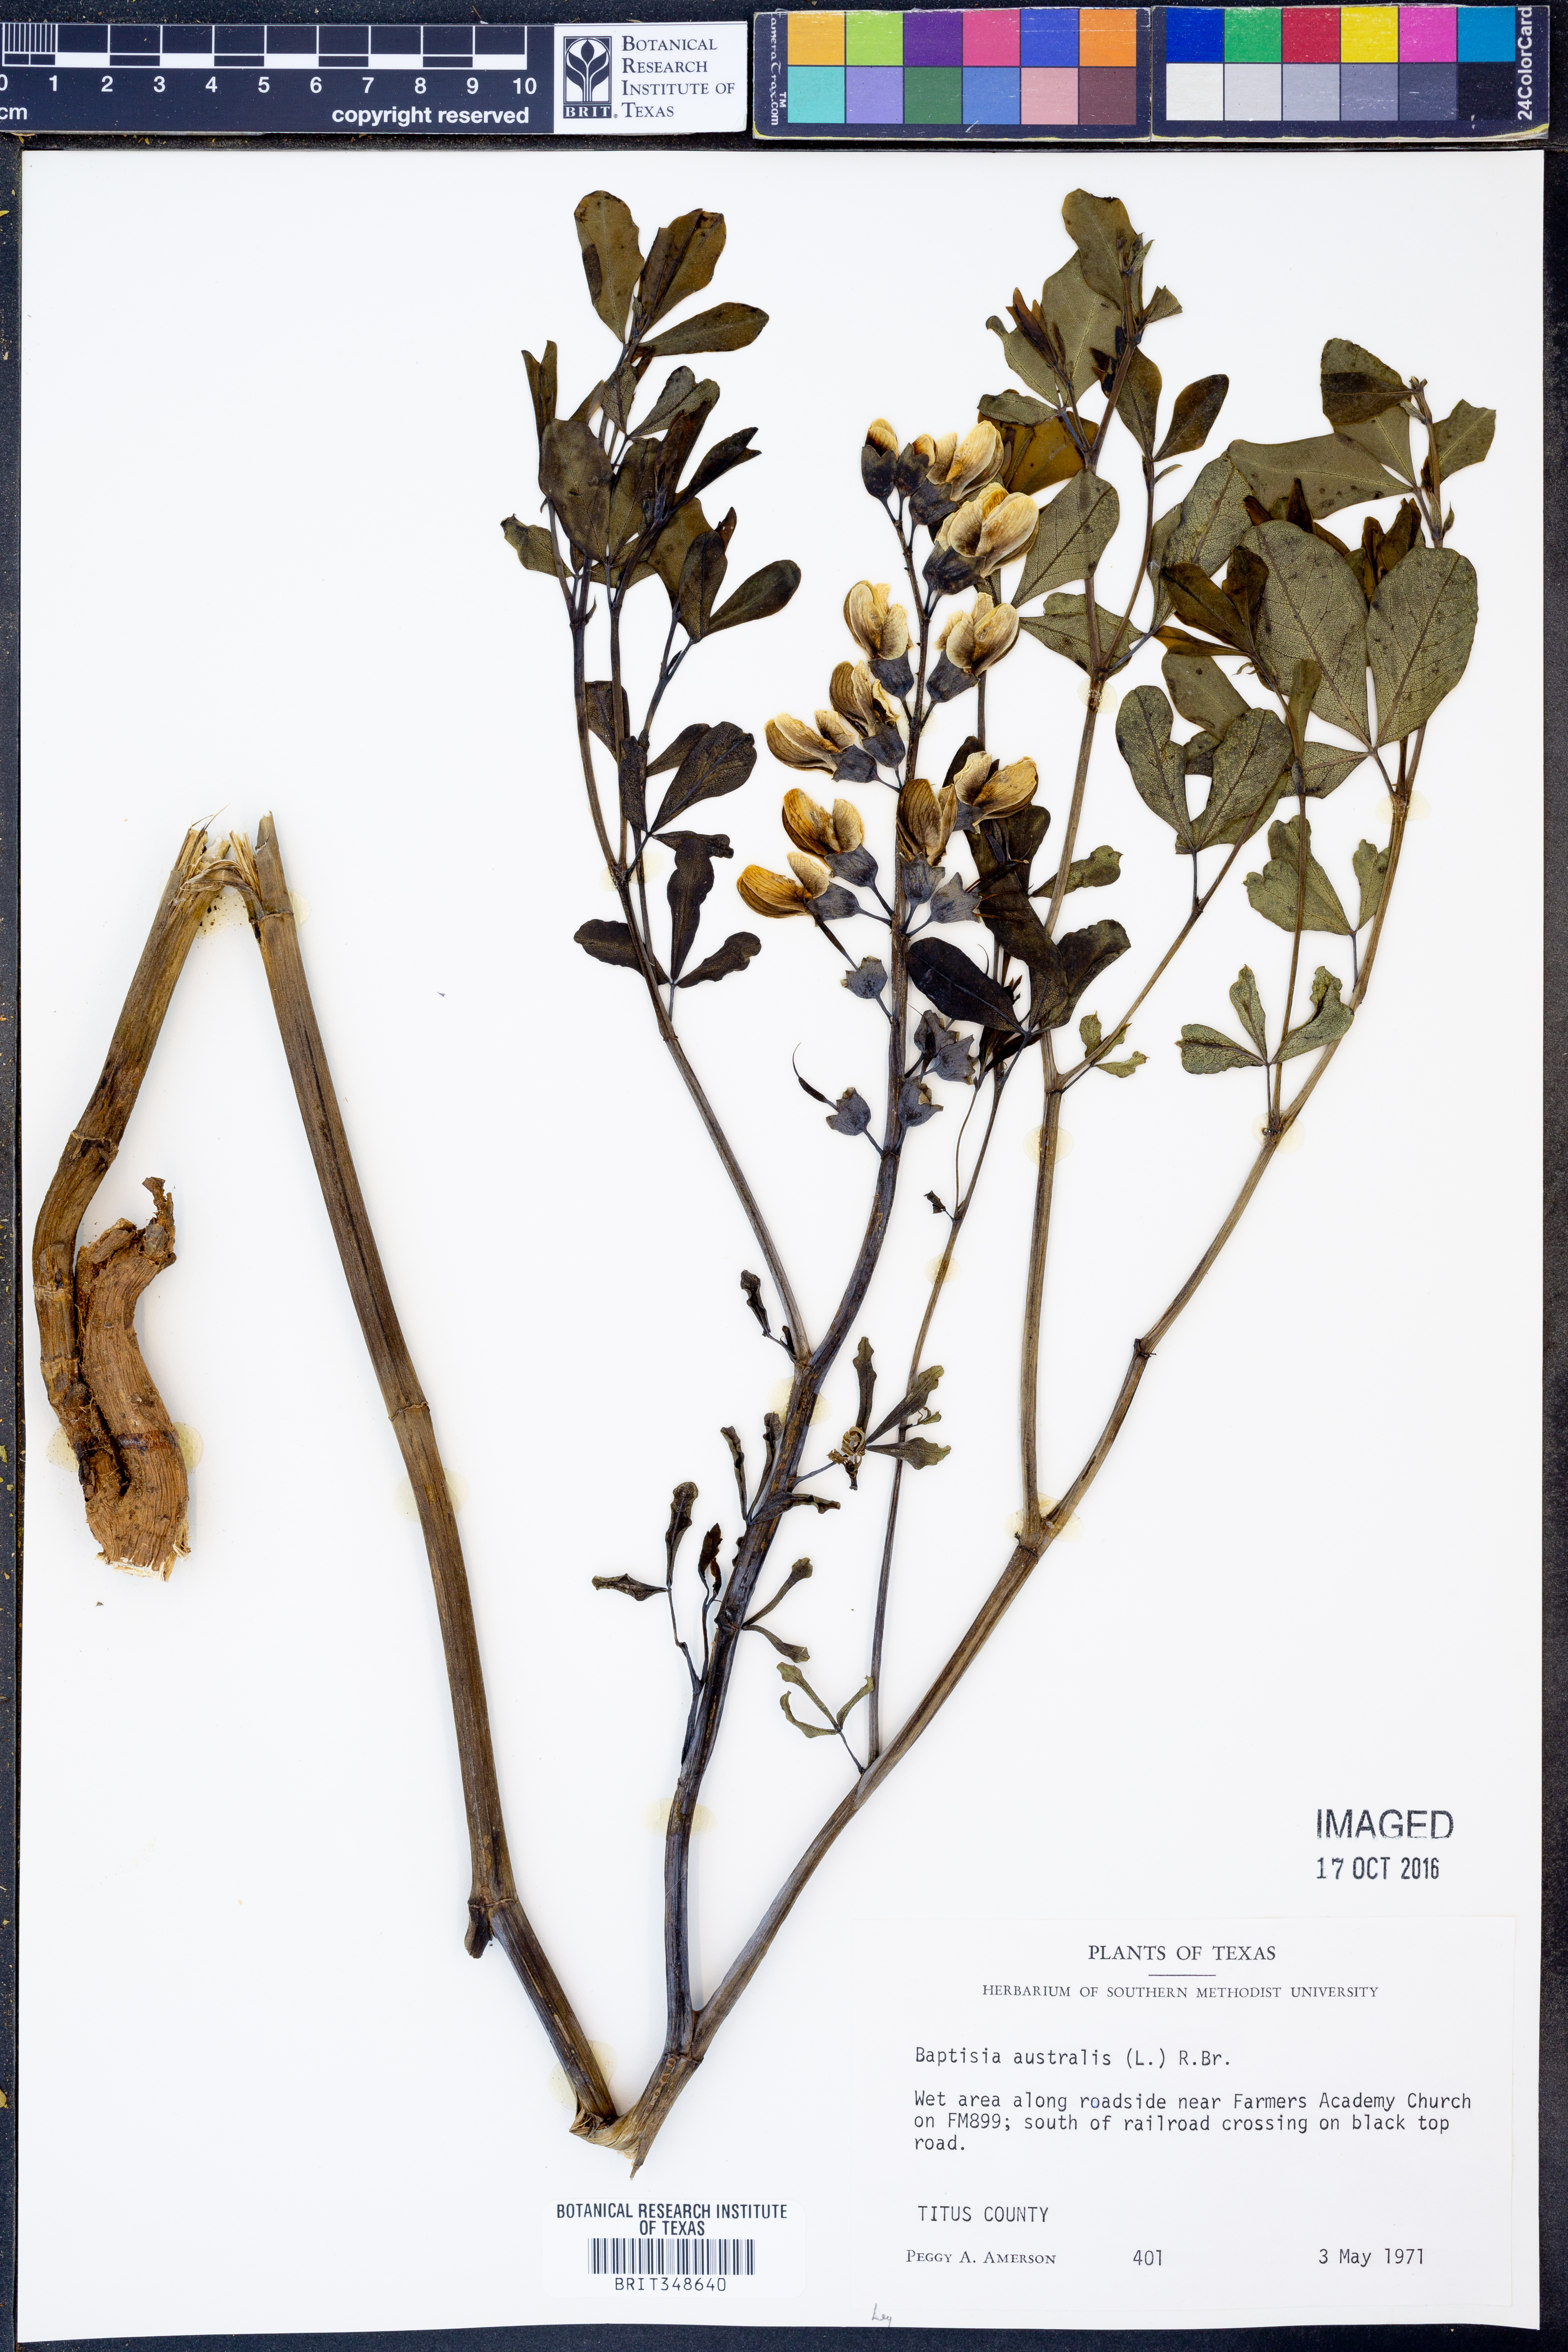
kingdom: Plantae
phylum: Tracheophyta
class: Magnoliopsida
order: Fabales
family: Fabaceae
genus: Baptisia
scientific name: Baptisia australis
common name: Blue false indigo
